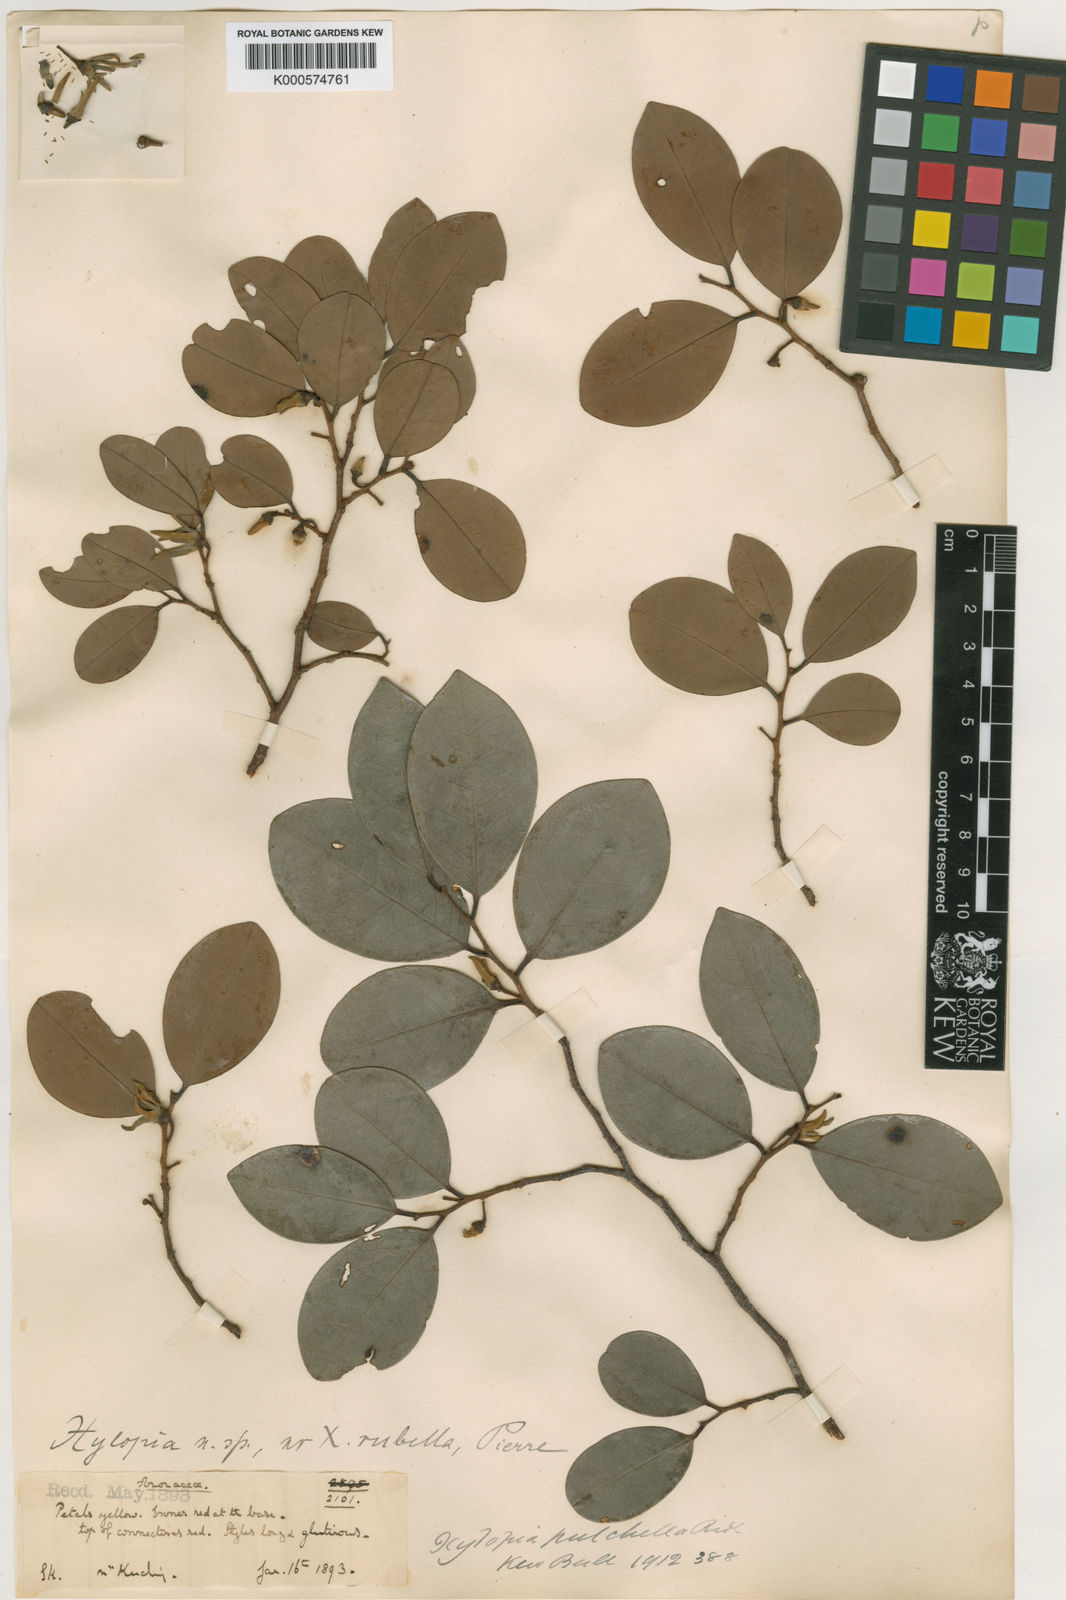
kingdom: Plantae
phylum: Tracheophyta
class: Magnoliopsida
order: Magnoliales
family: Annonaceae
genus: Xylopia
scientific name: Xylopia pulchella
